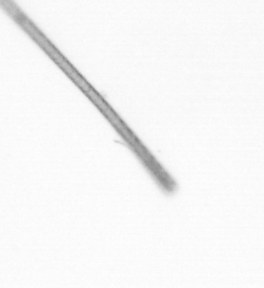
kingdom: Chromista
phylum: Ochrophyta
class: Bacillariophyceae
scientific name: Bacillariophyceae
